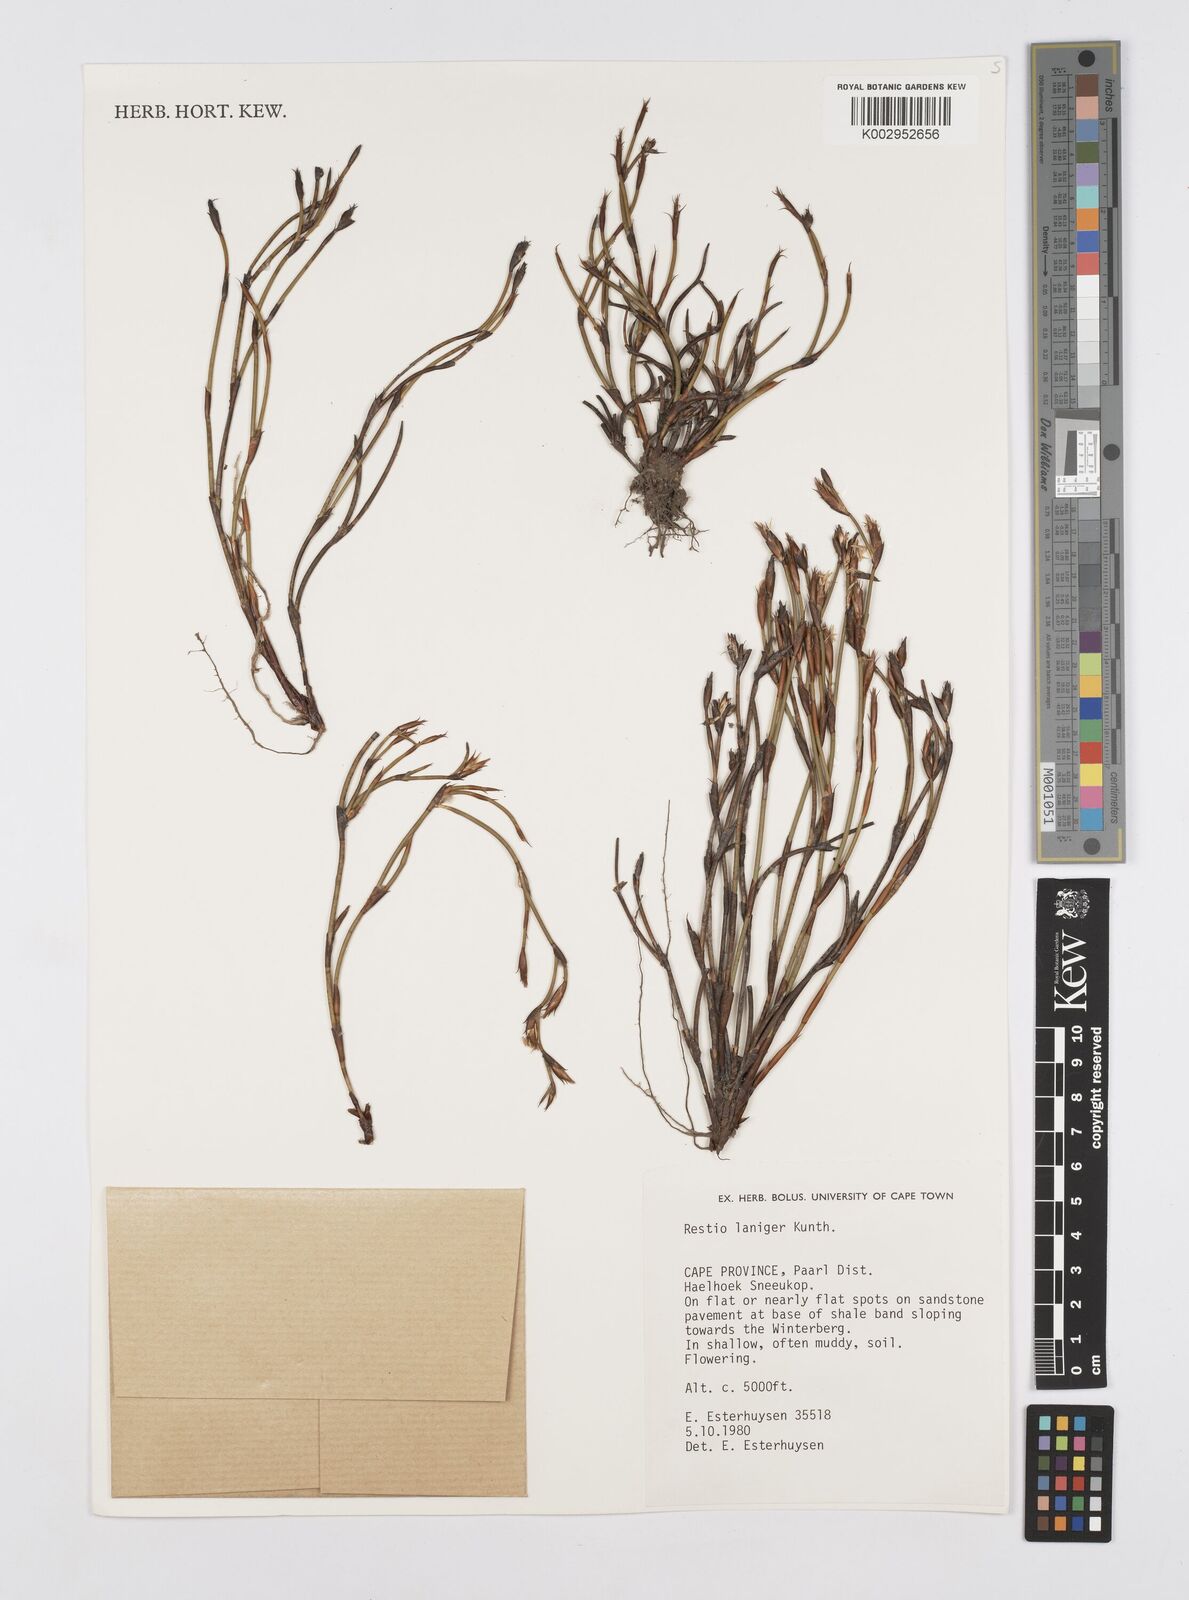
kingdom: Plantae
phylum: Tracheophyta
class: Liliopsida
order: Poales
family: Restionaceae
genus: Restio
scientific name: Restio laniger
